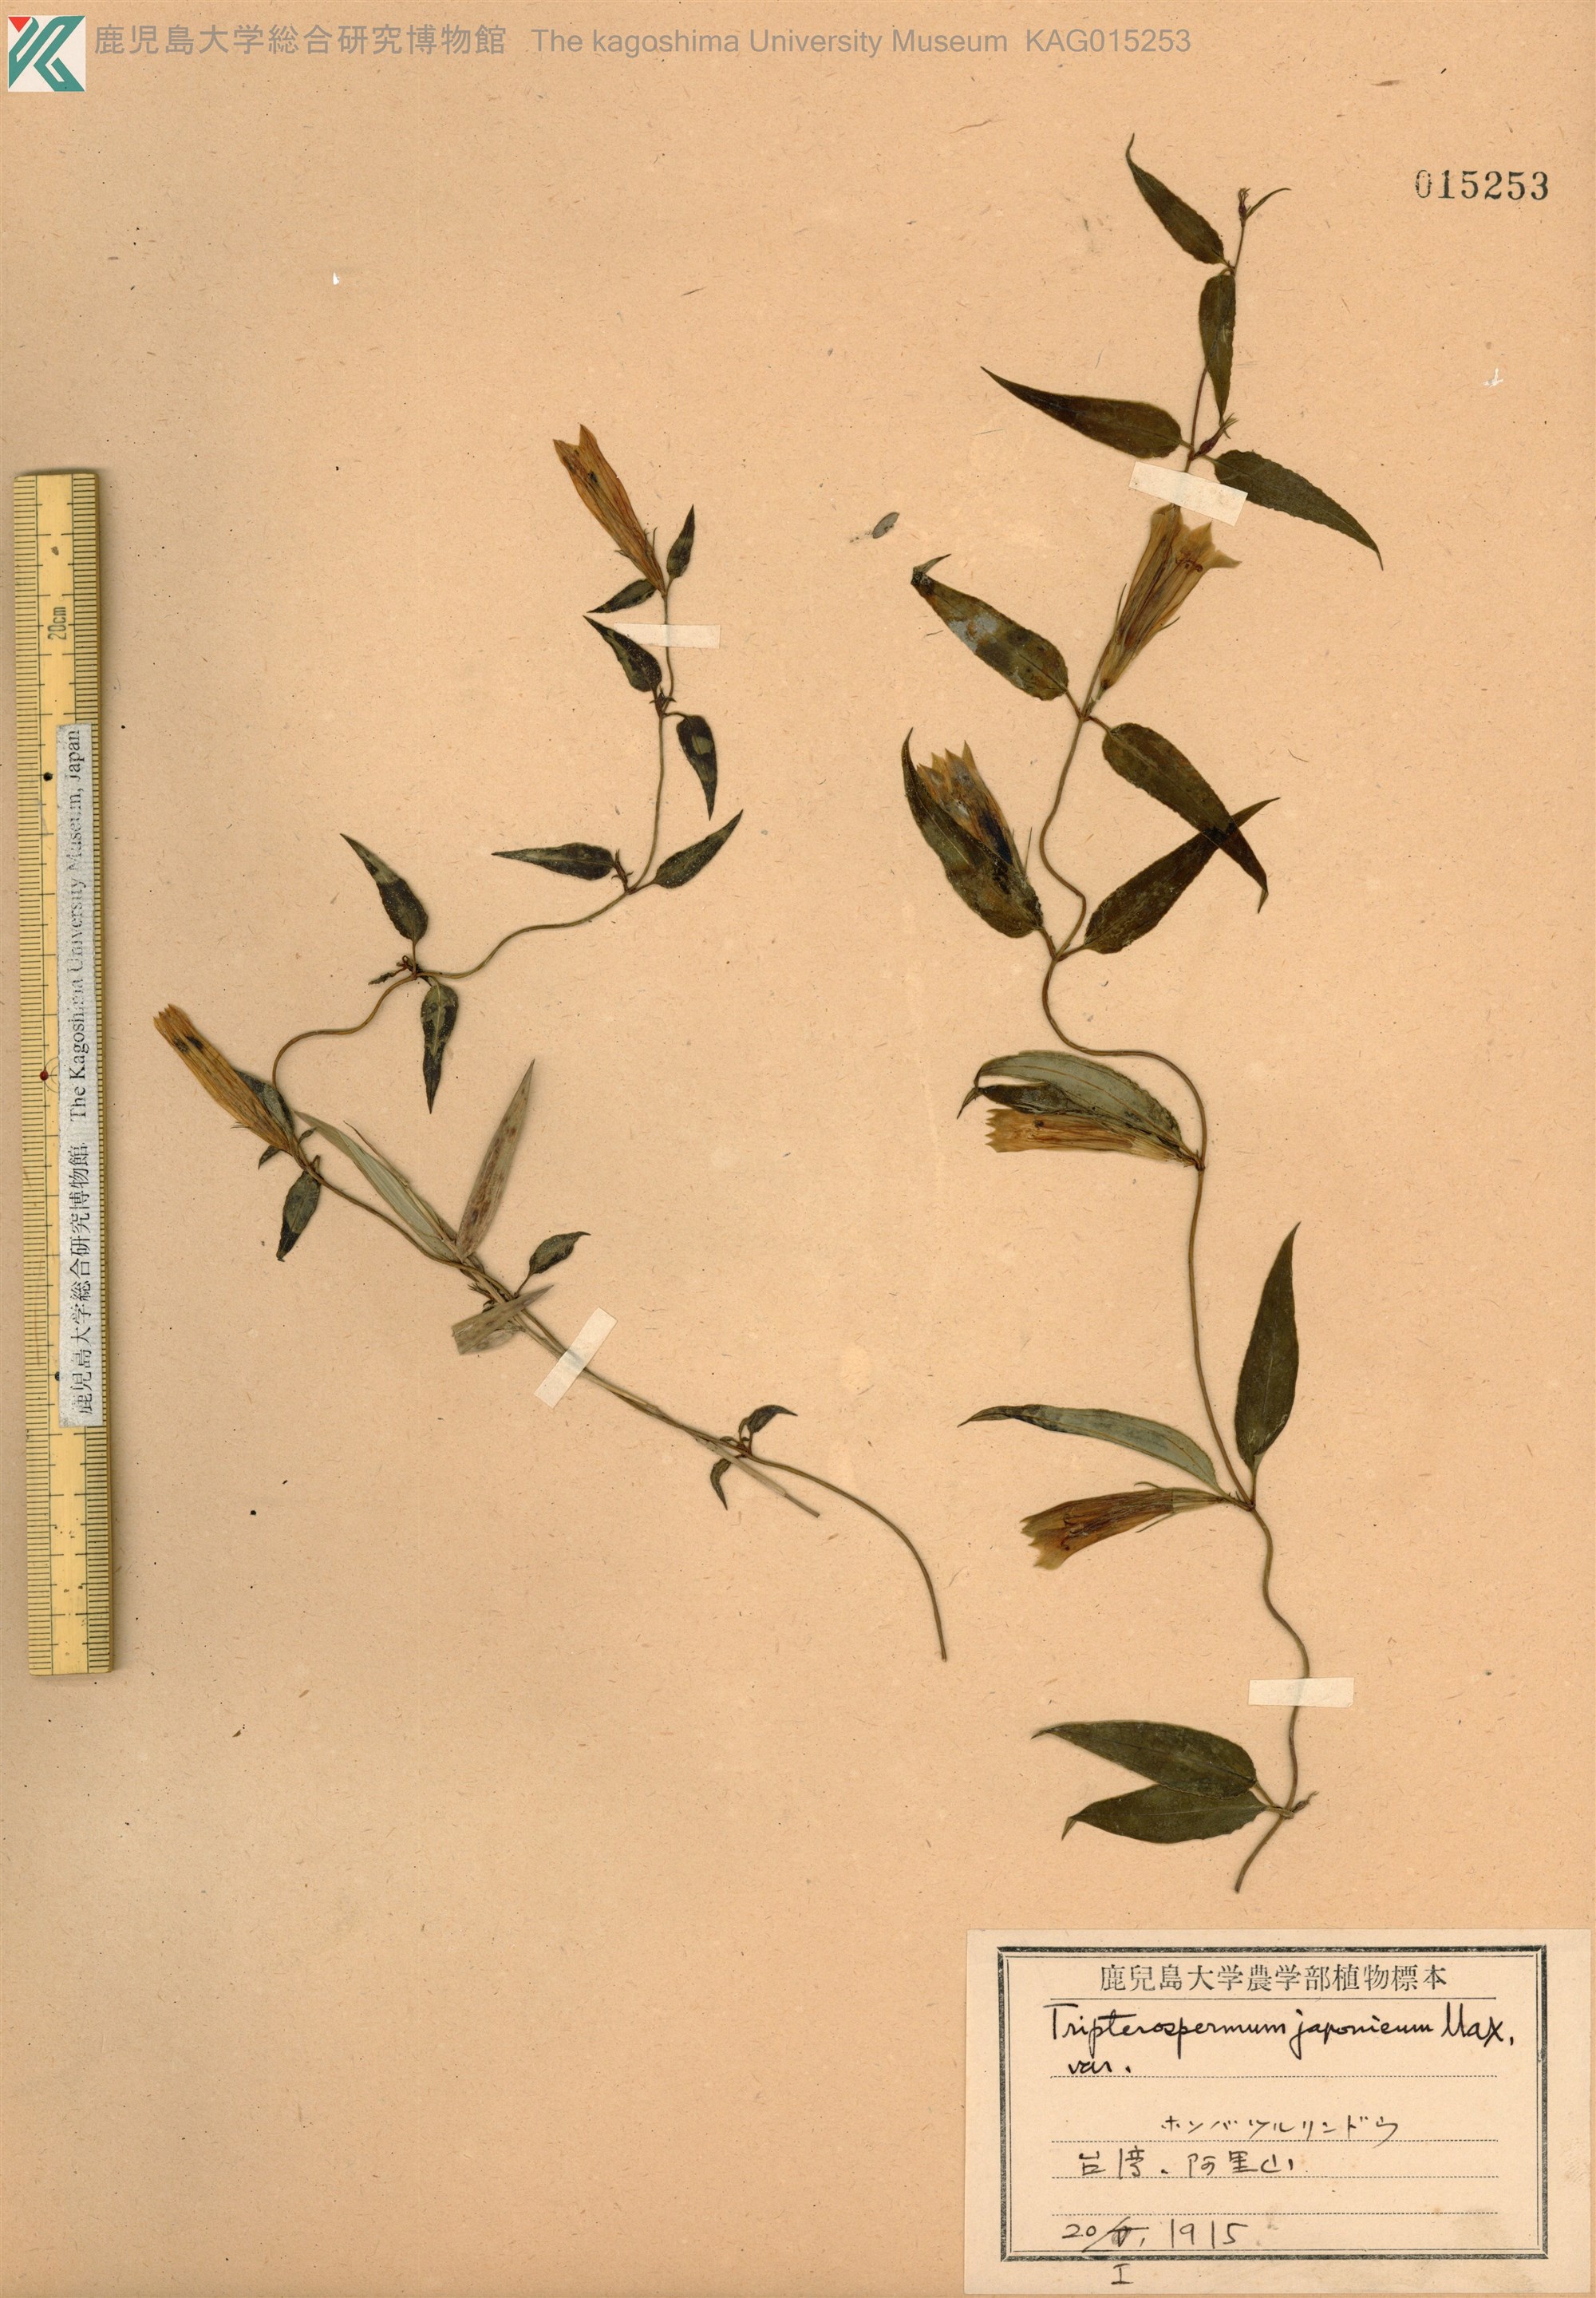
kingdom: Plantae
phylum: Tracheophyta
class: Magnoliopsida
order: Gentianales
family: Gentianaceae
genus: Tripterospermum
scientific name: Tripterospermum lanceolatum
